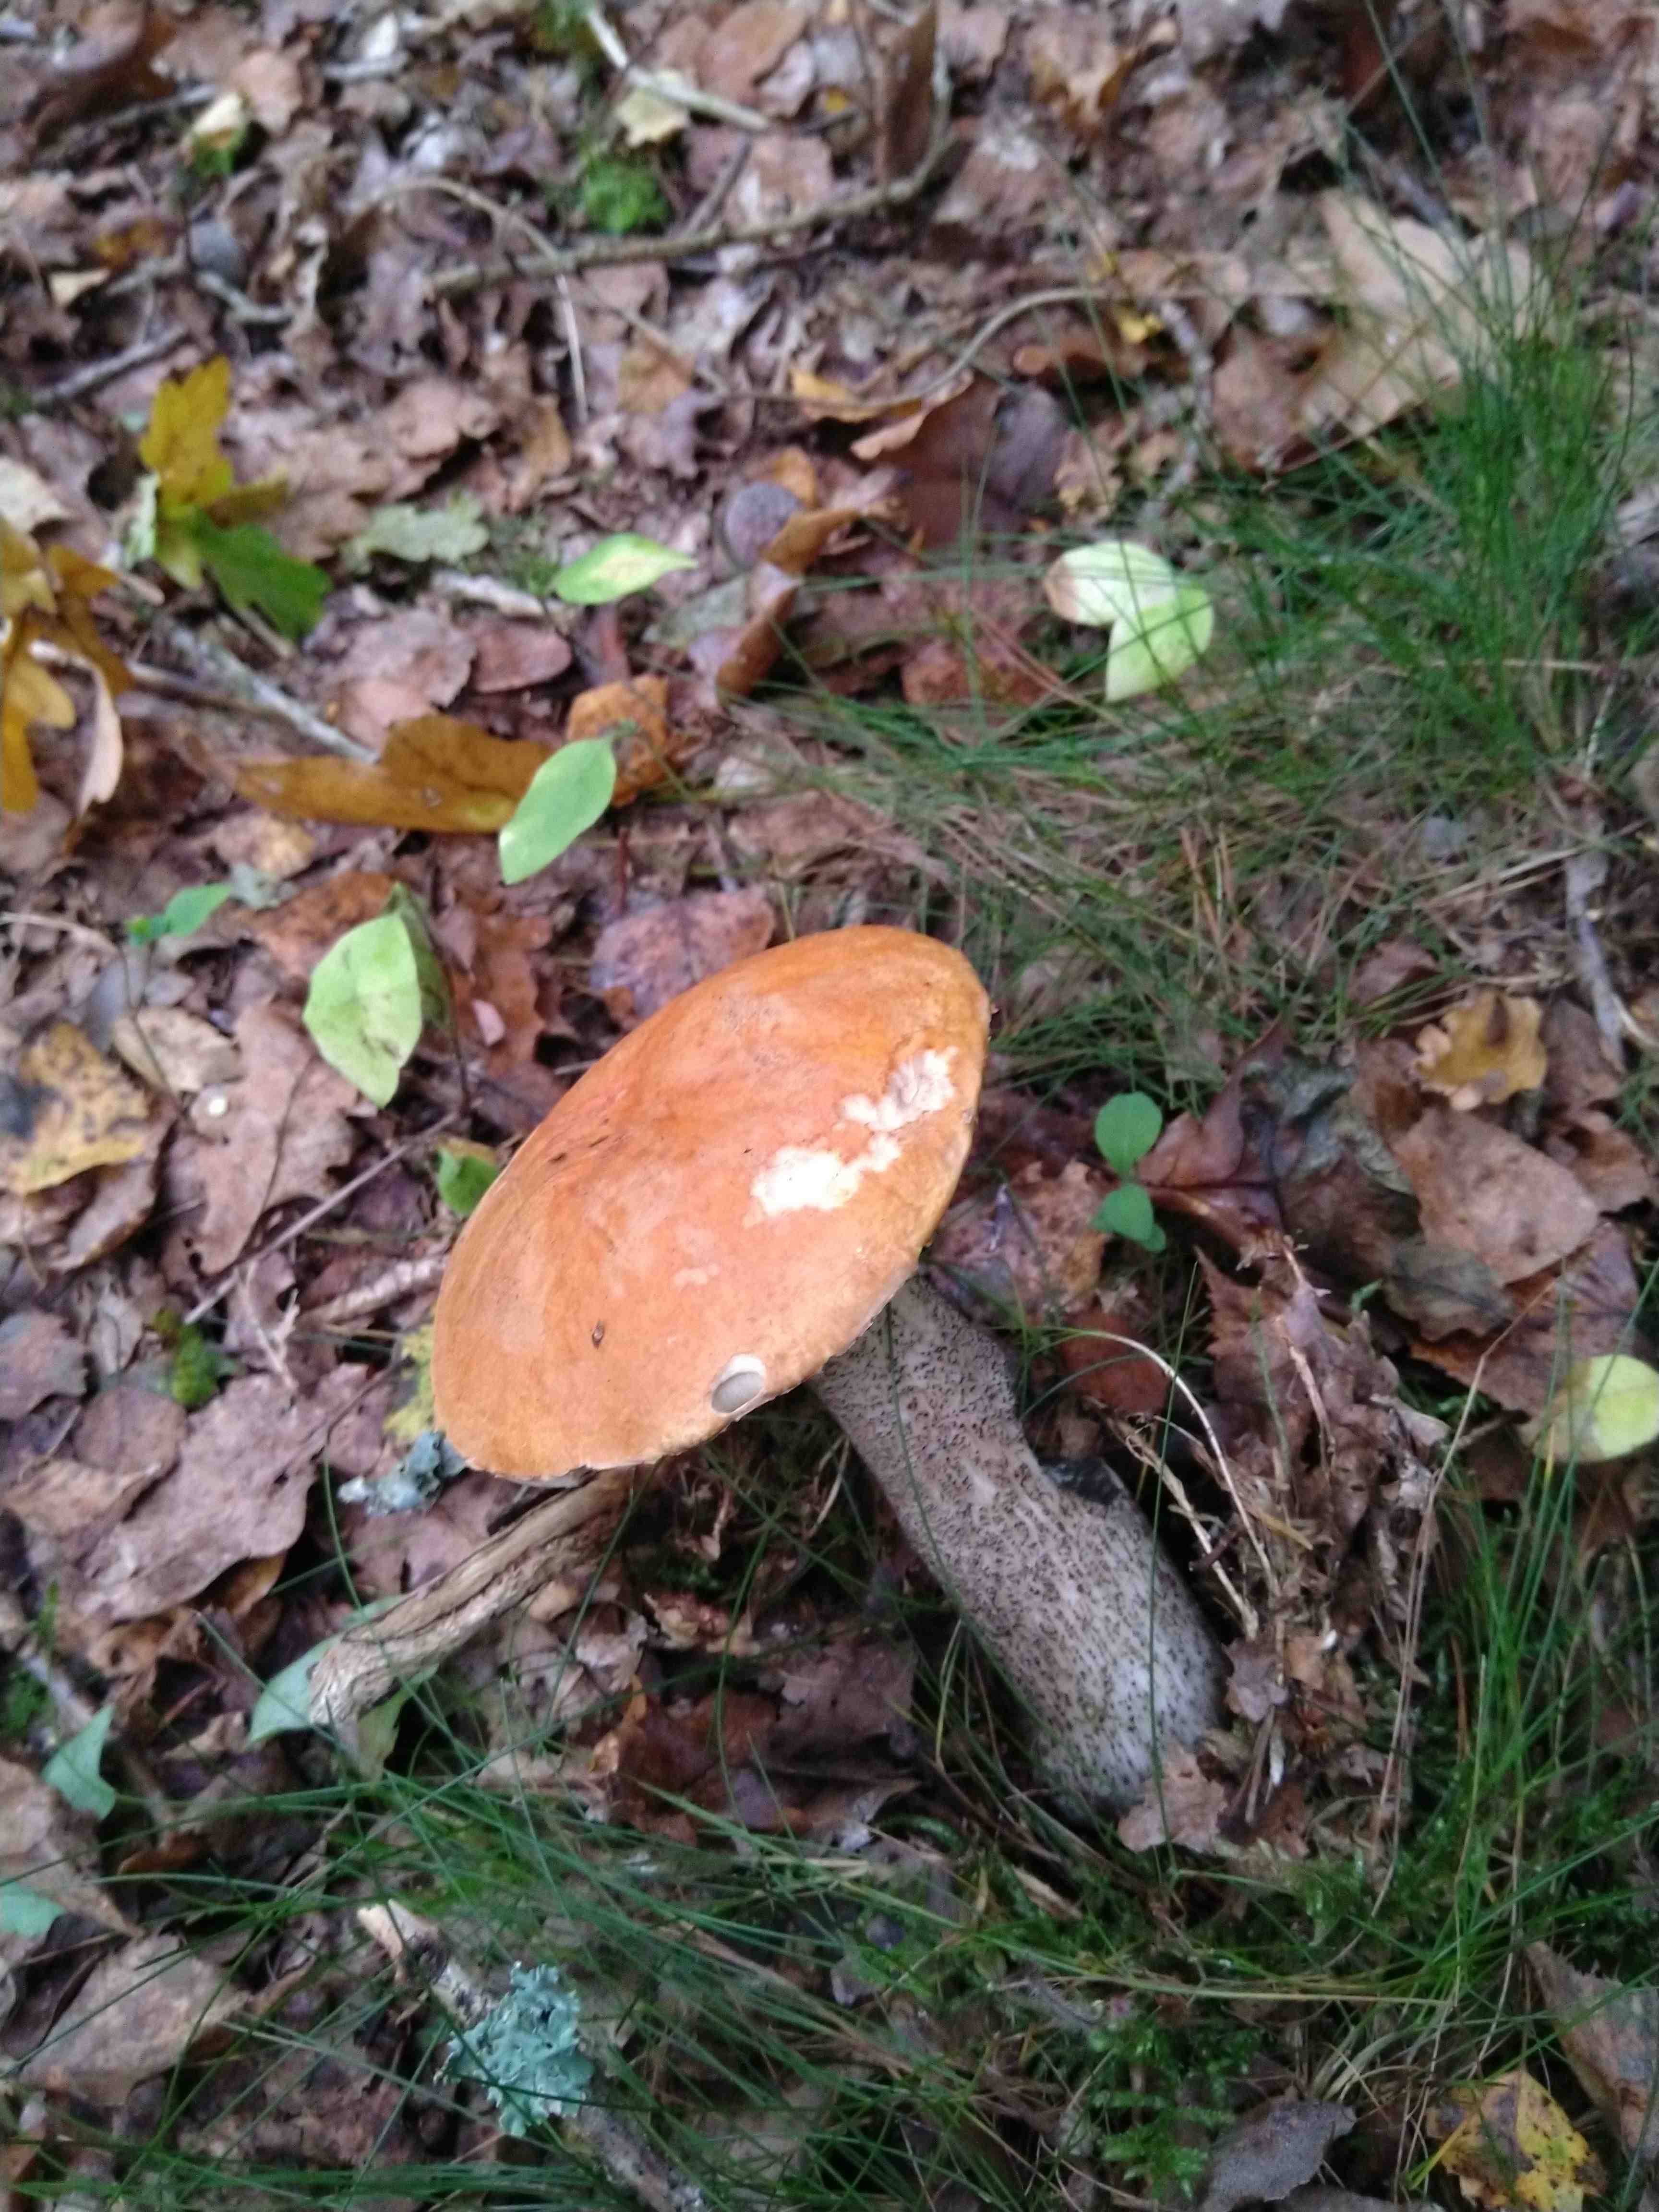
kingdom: Fungi
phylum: Basidiomycota
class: Agaricomycetes
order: Boletales
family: Boletaceae
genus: Leccinum
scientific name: Leccinum versipelle
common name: orange skælrørhat
